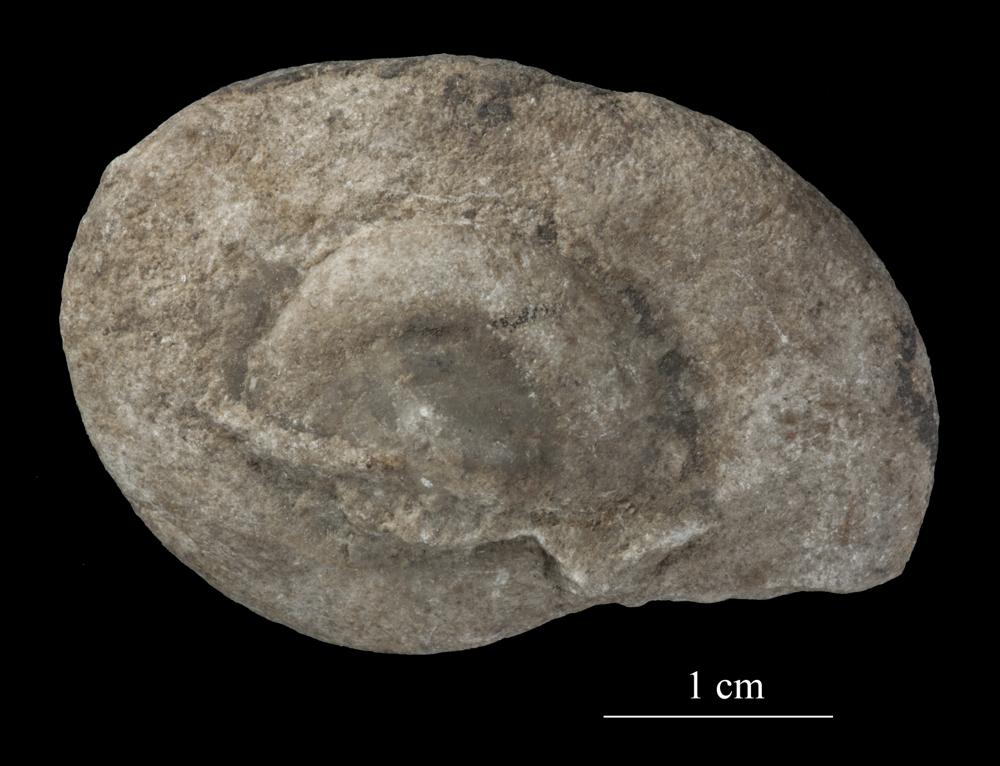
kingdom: Animalia
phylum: Mollusca
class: Gastropoda
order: Neogastropoda
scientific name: Neogastropoda
